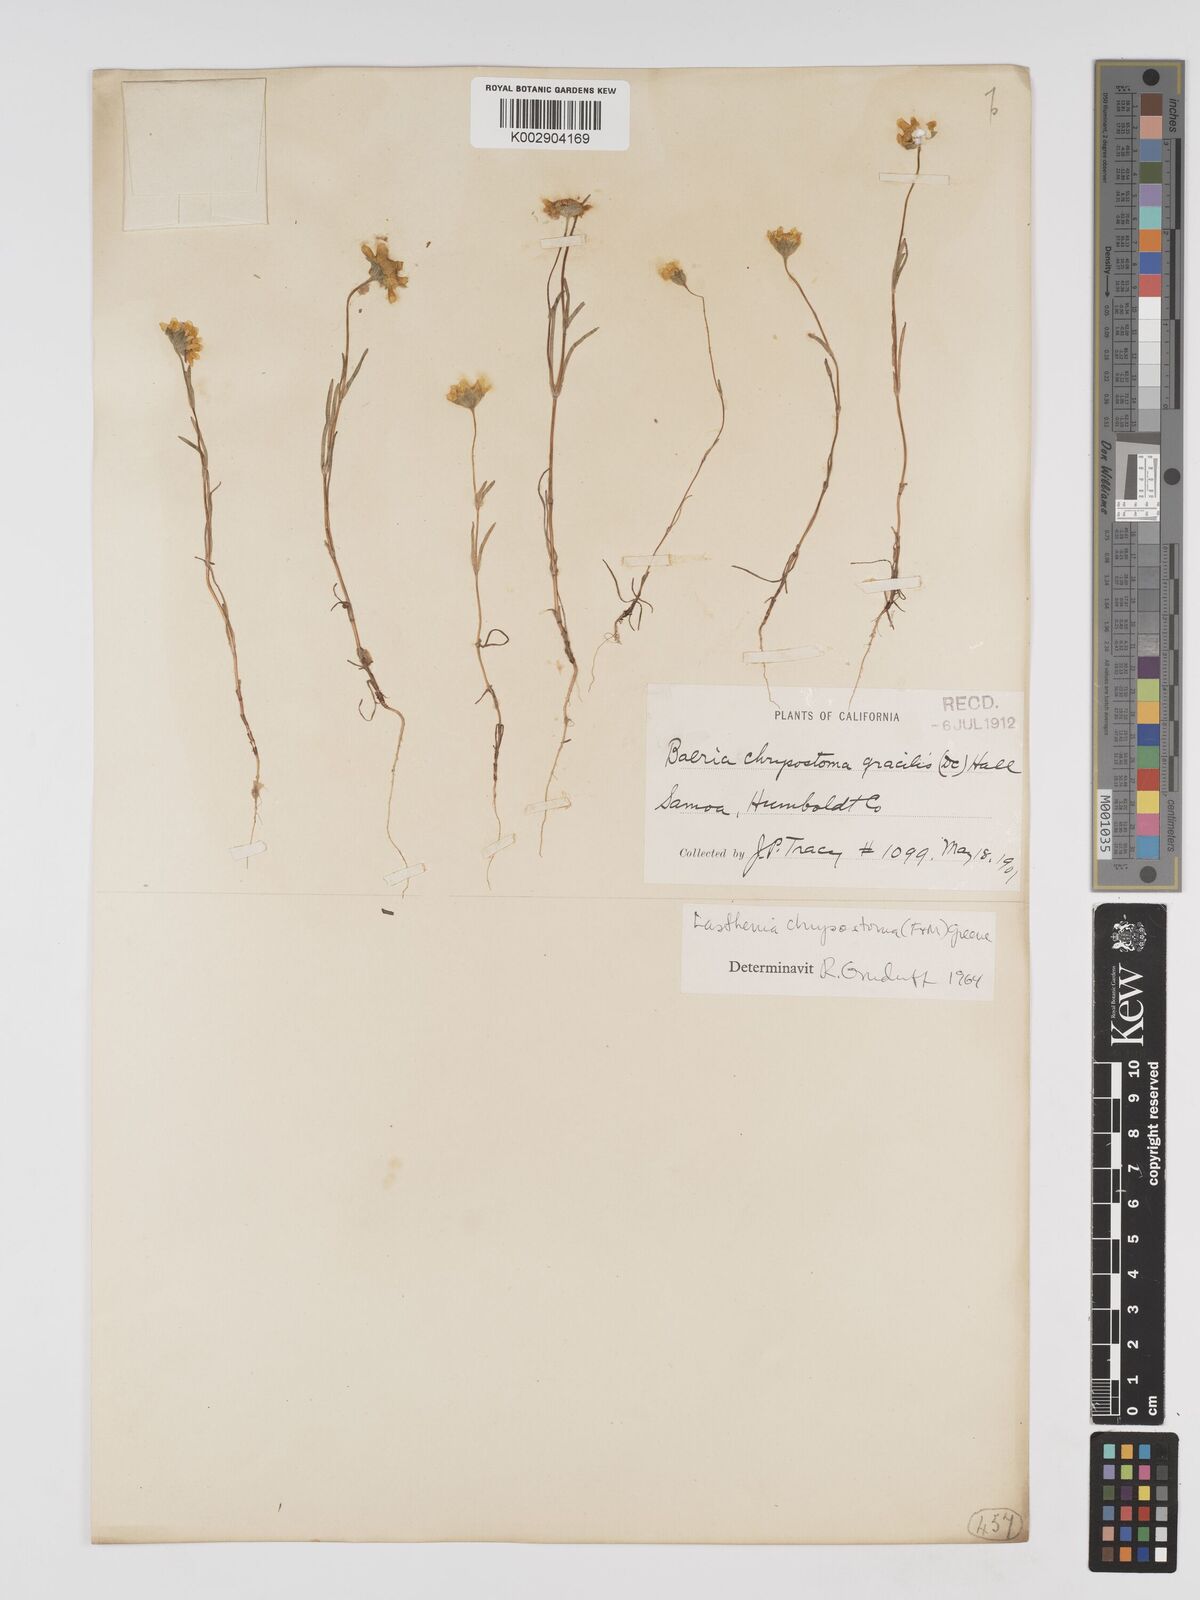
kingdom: Plantae
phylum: Tracheophyta
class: Magnoliopsida
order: Asterales
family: Asteraceae
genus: Lasthenia
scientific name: Lasthenia californica
